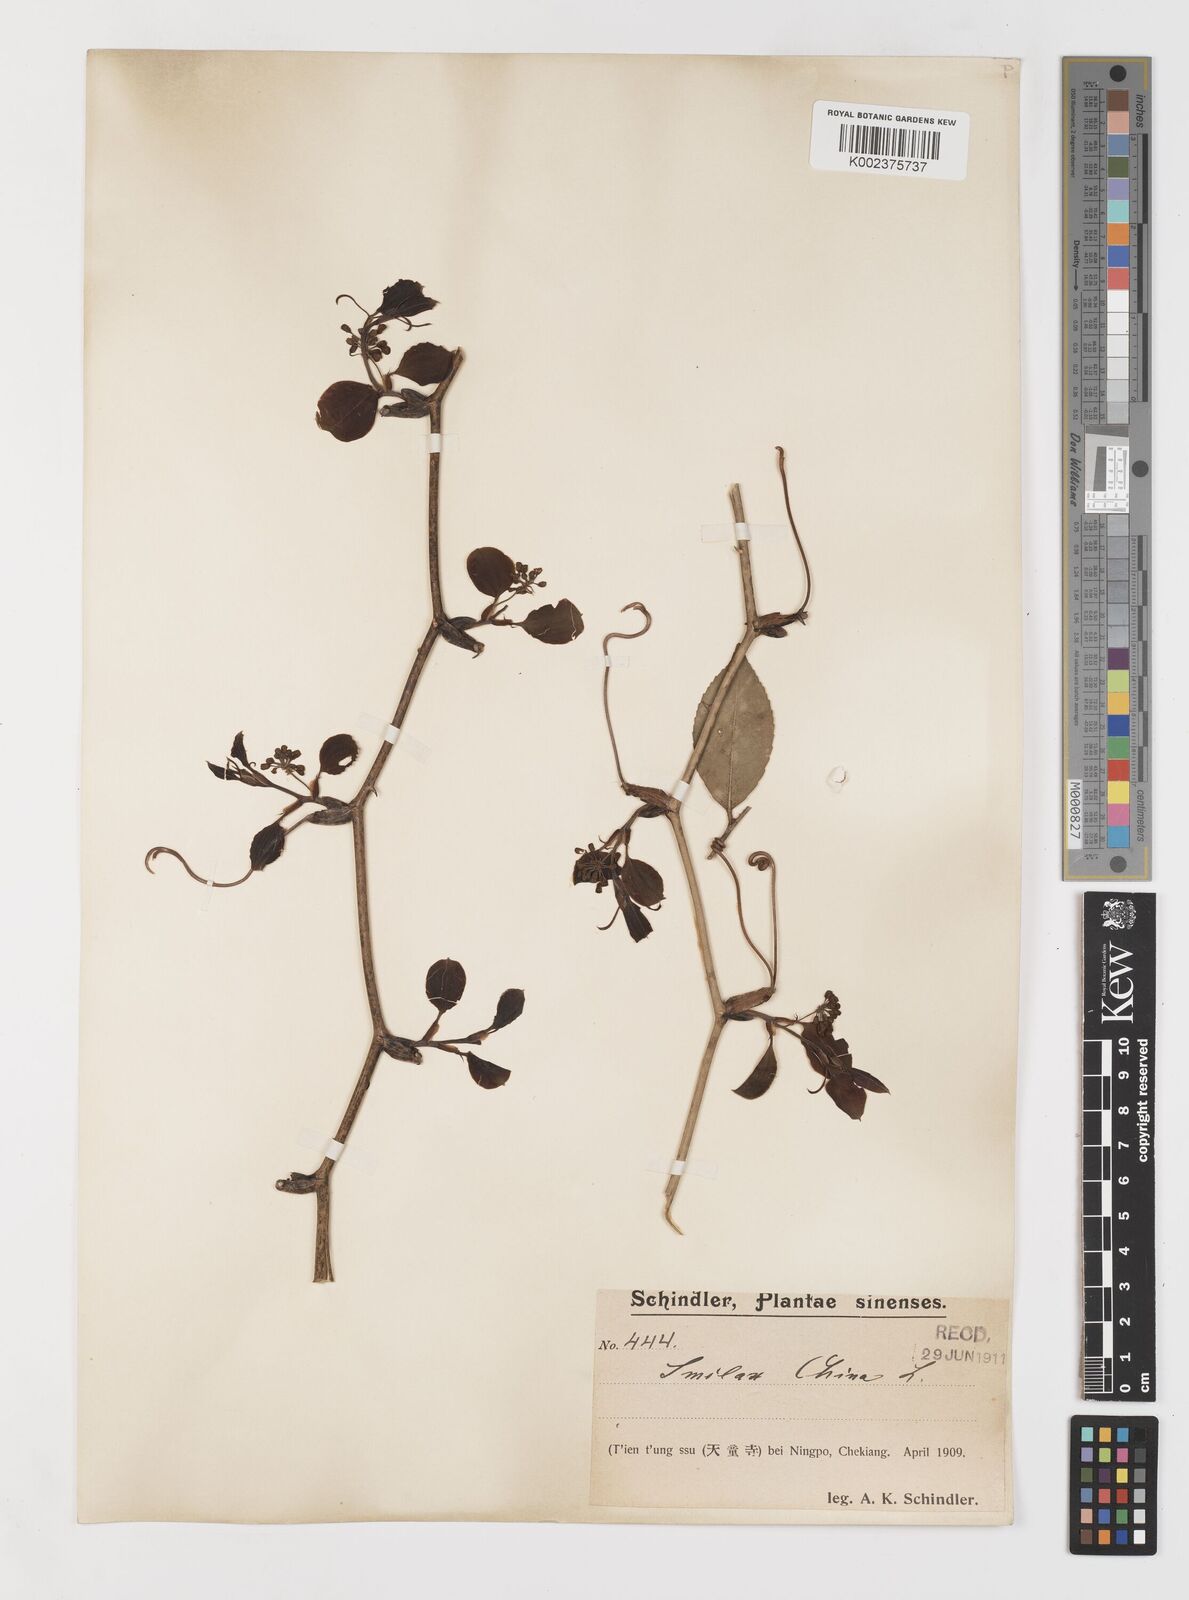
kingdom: Plantae
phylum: Tracheophyta
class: Liliopsida
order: Liliales
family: Smilacaceae
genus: Smilax
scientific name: Smilax china
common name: Chinaroot
